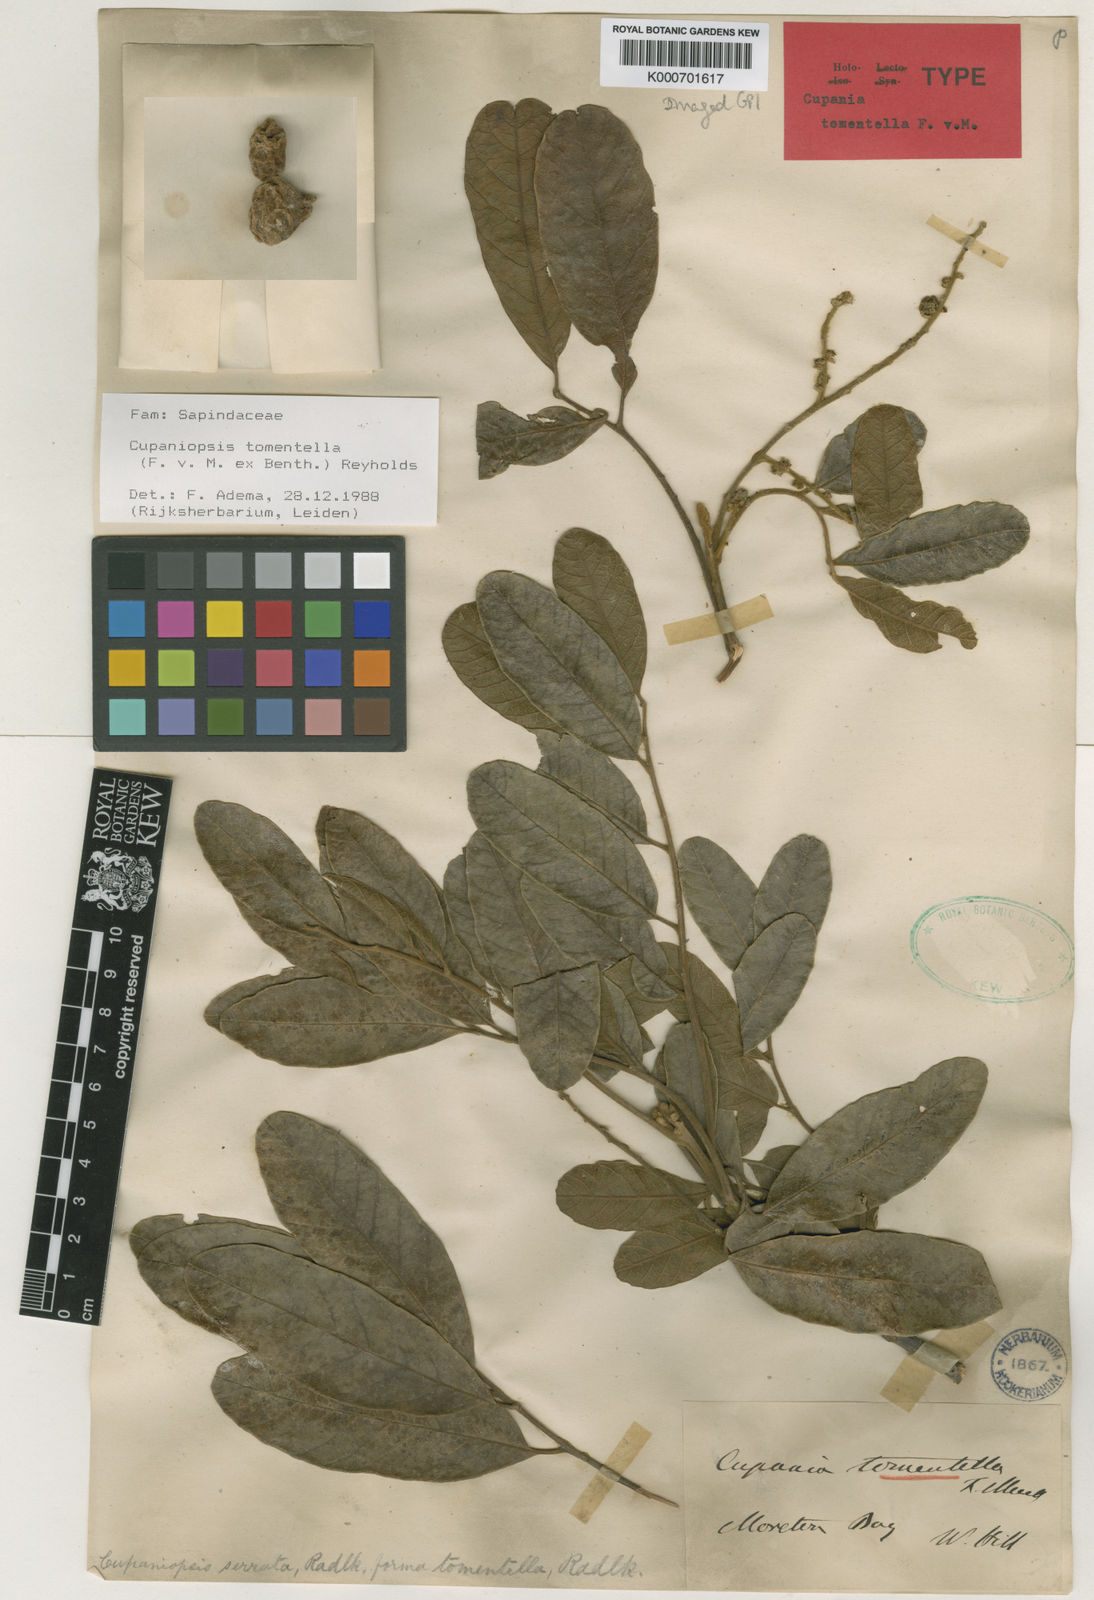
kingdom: Plantae
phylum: Tracheophyta
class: Magnoliopsida
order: Sapindales
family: Sapindaceae
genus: Cupaniopsis
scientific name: Cupaniopsis tomentella
